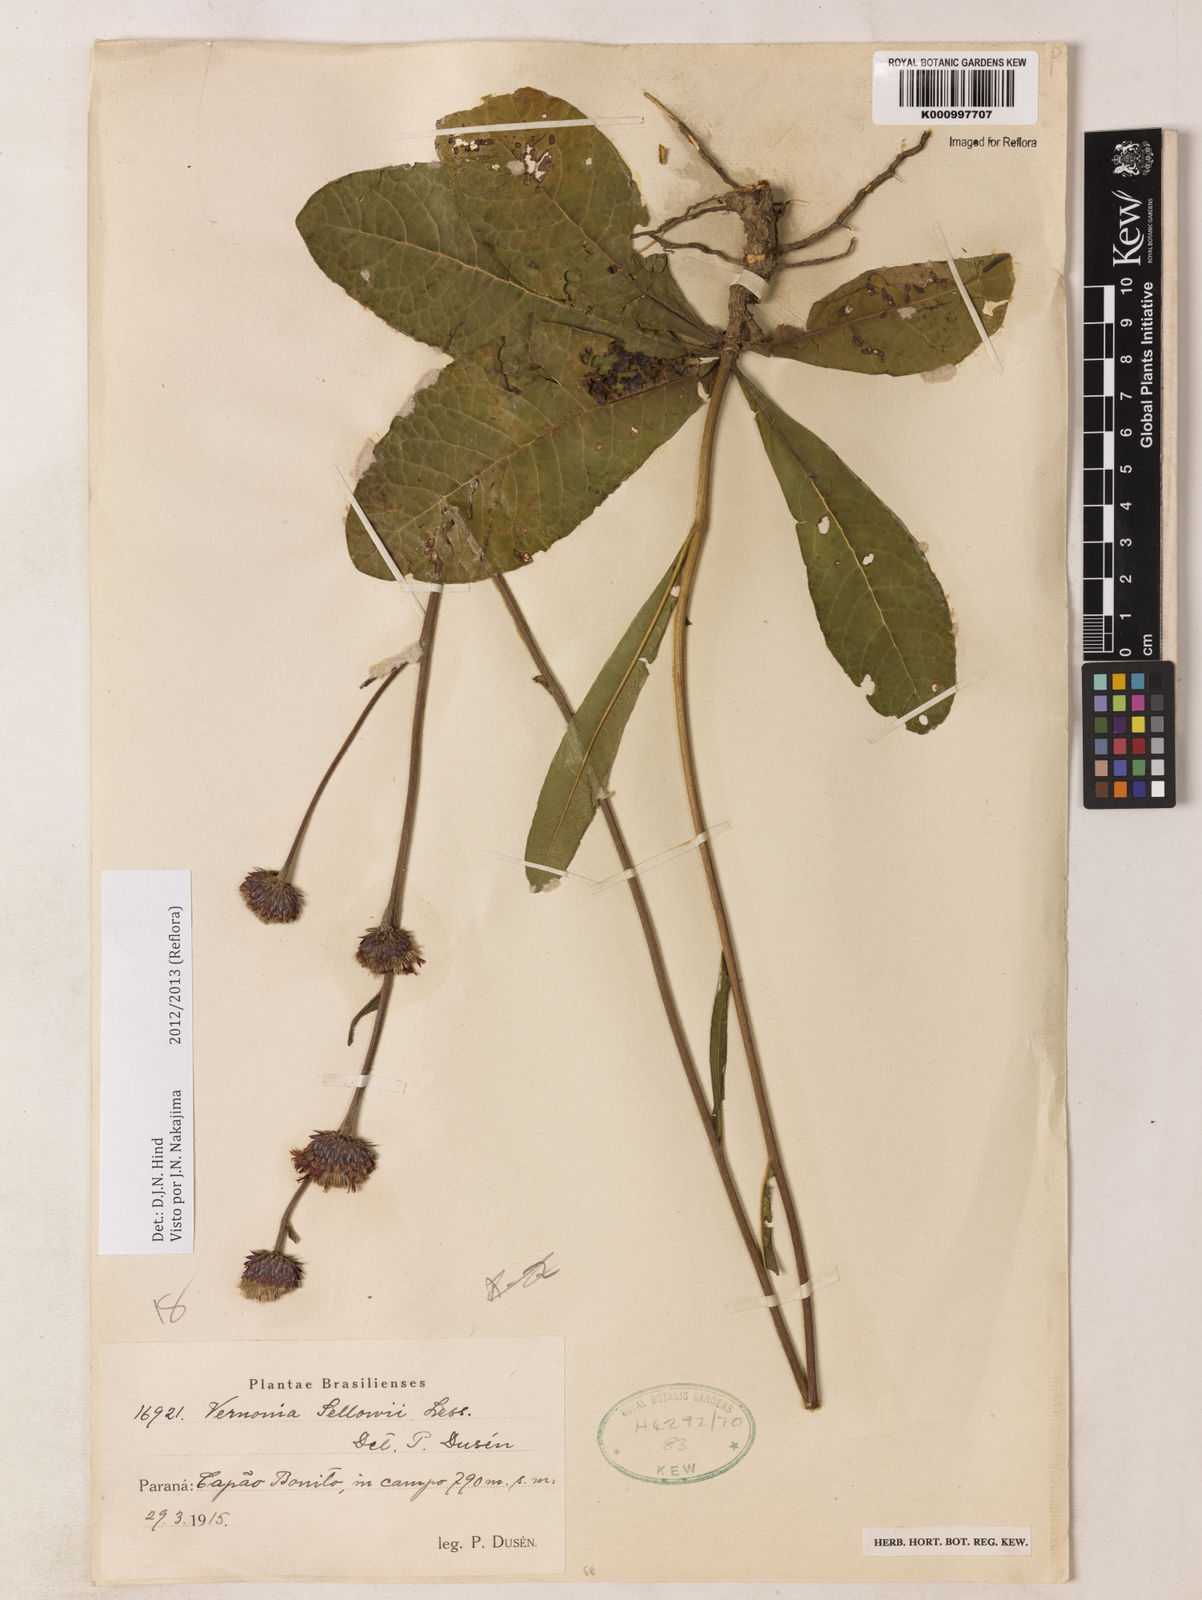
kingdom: Plantae
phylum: Tracheophyta
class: Magnoliopsida
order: Asterales
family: Asteraceae
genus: Lessingianthus
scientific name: Lessingianthus sellowii
